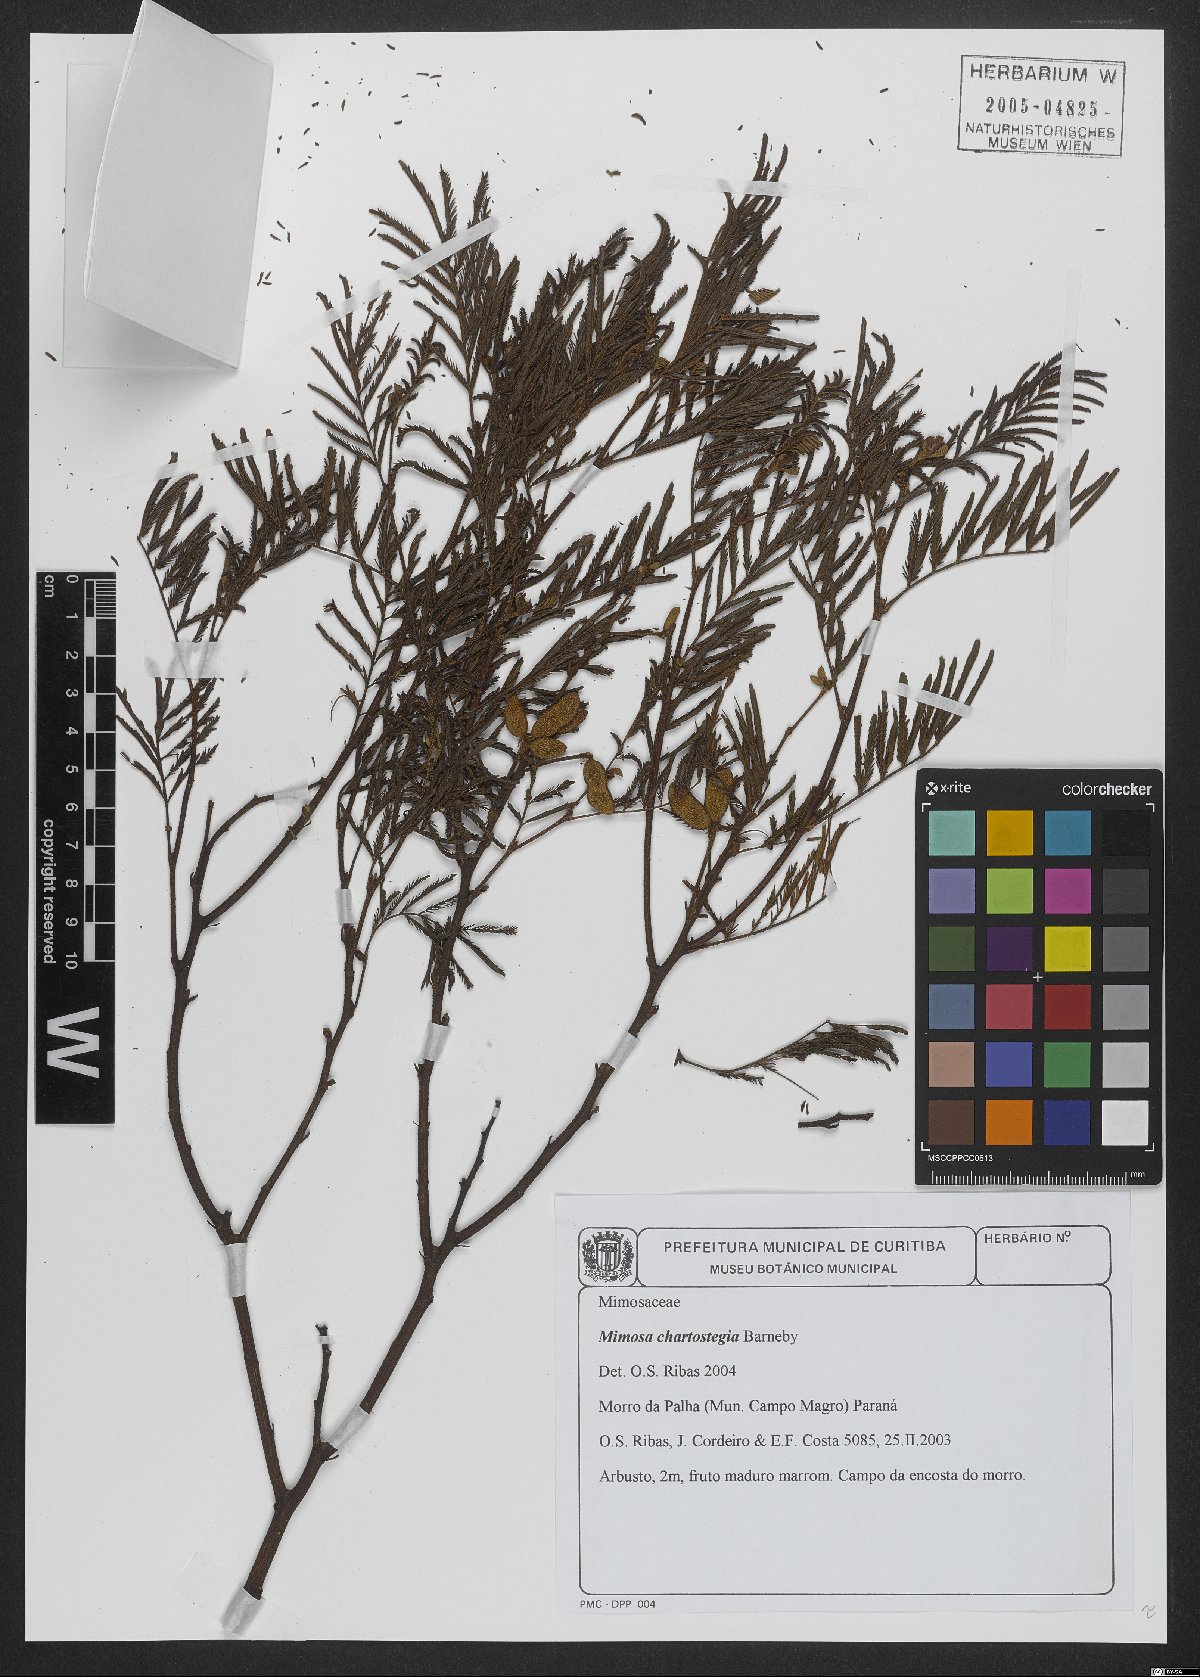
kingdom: Plantae
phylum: Tracheophyta
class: Magnoliopsida
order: Fabales
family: Fabaceae
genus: Mimosa
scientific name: Mimosa chartostegia
